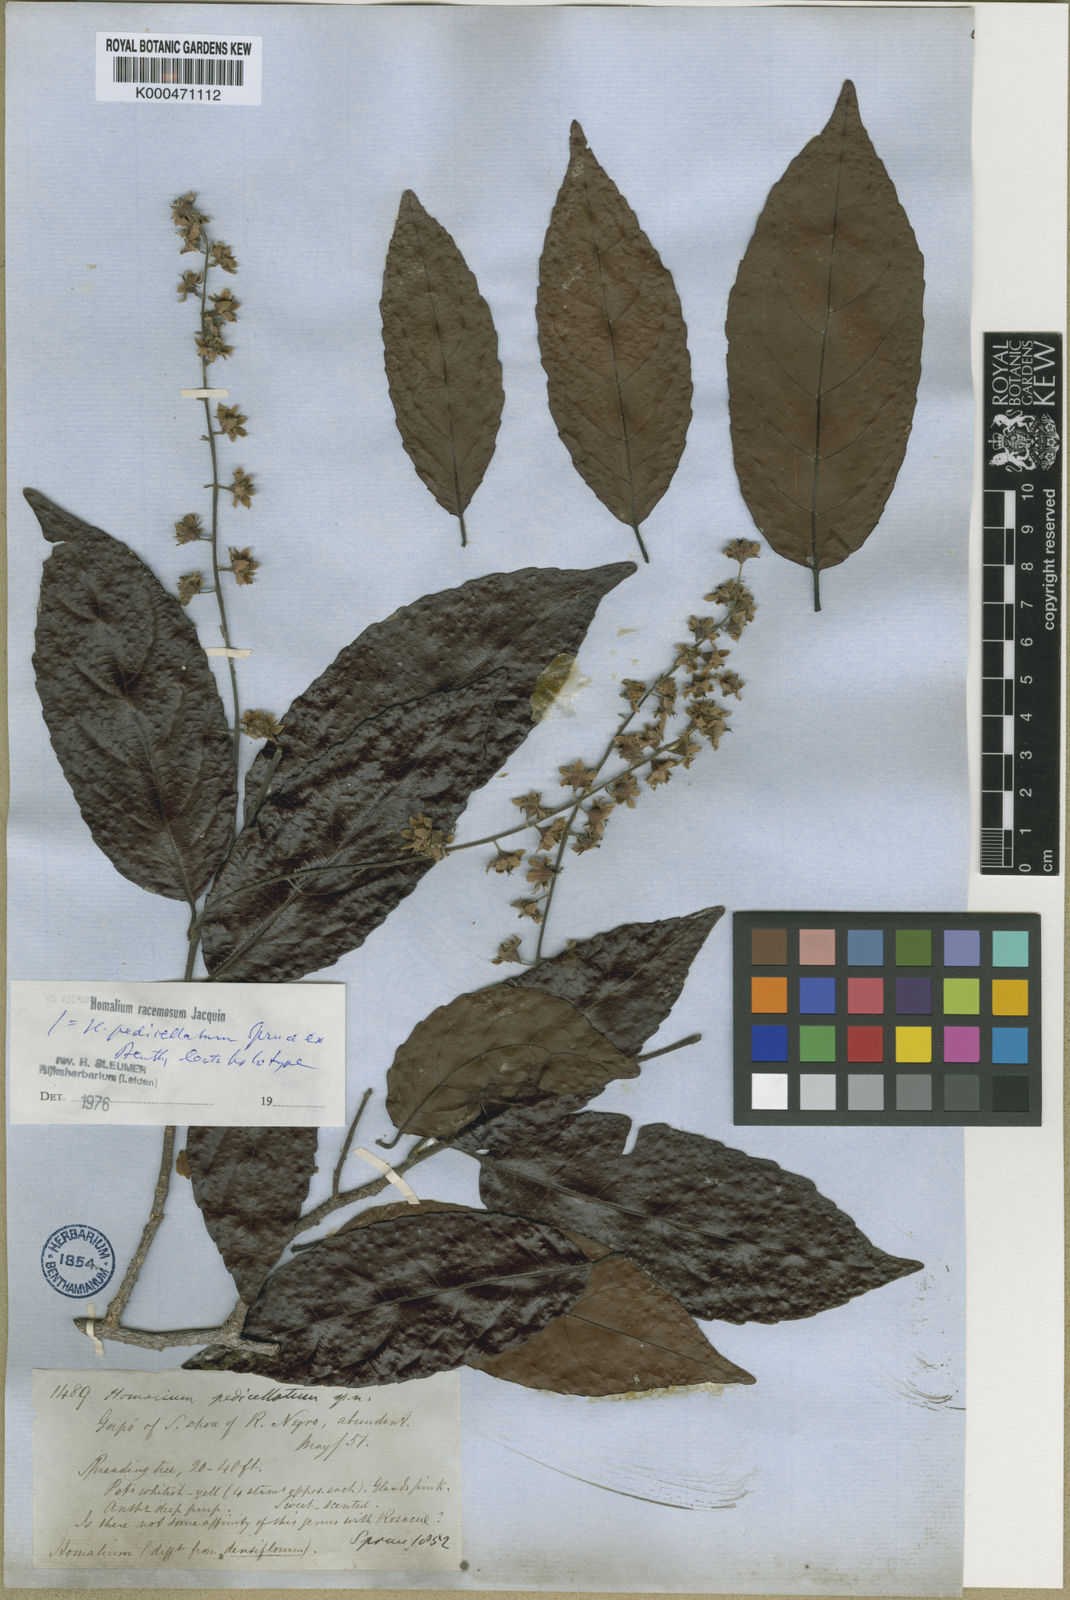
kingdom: Plantae
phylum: Tracheophyta
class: Magnoliopsida
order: Malpighiales
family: Salicaceae
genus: Homalium
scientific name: Homalium racemosum
